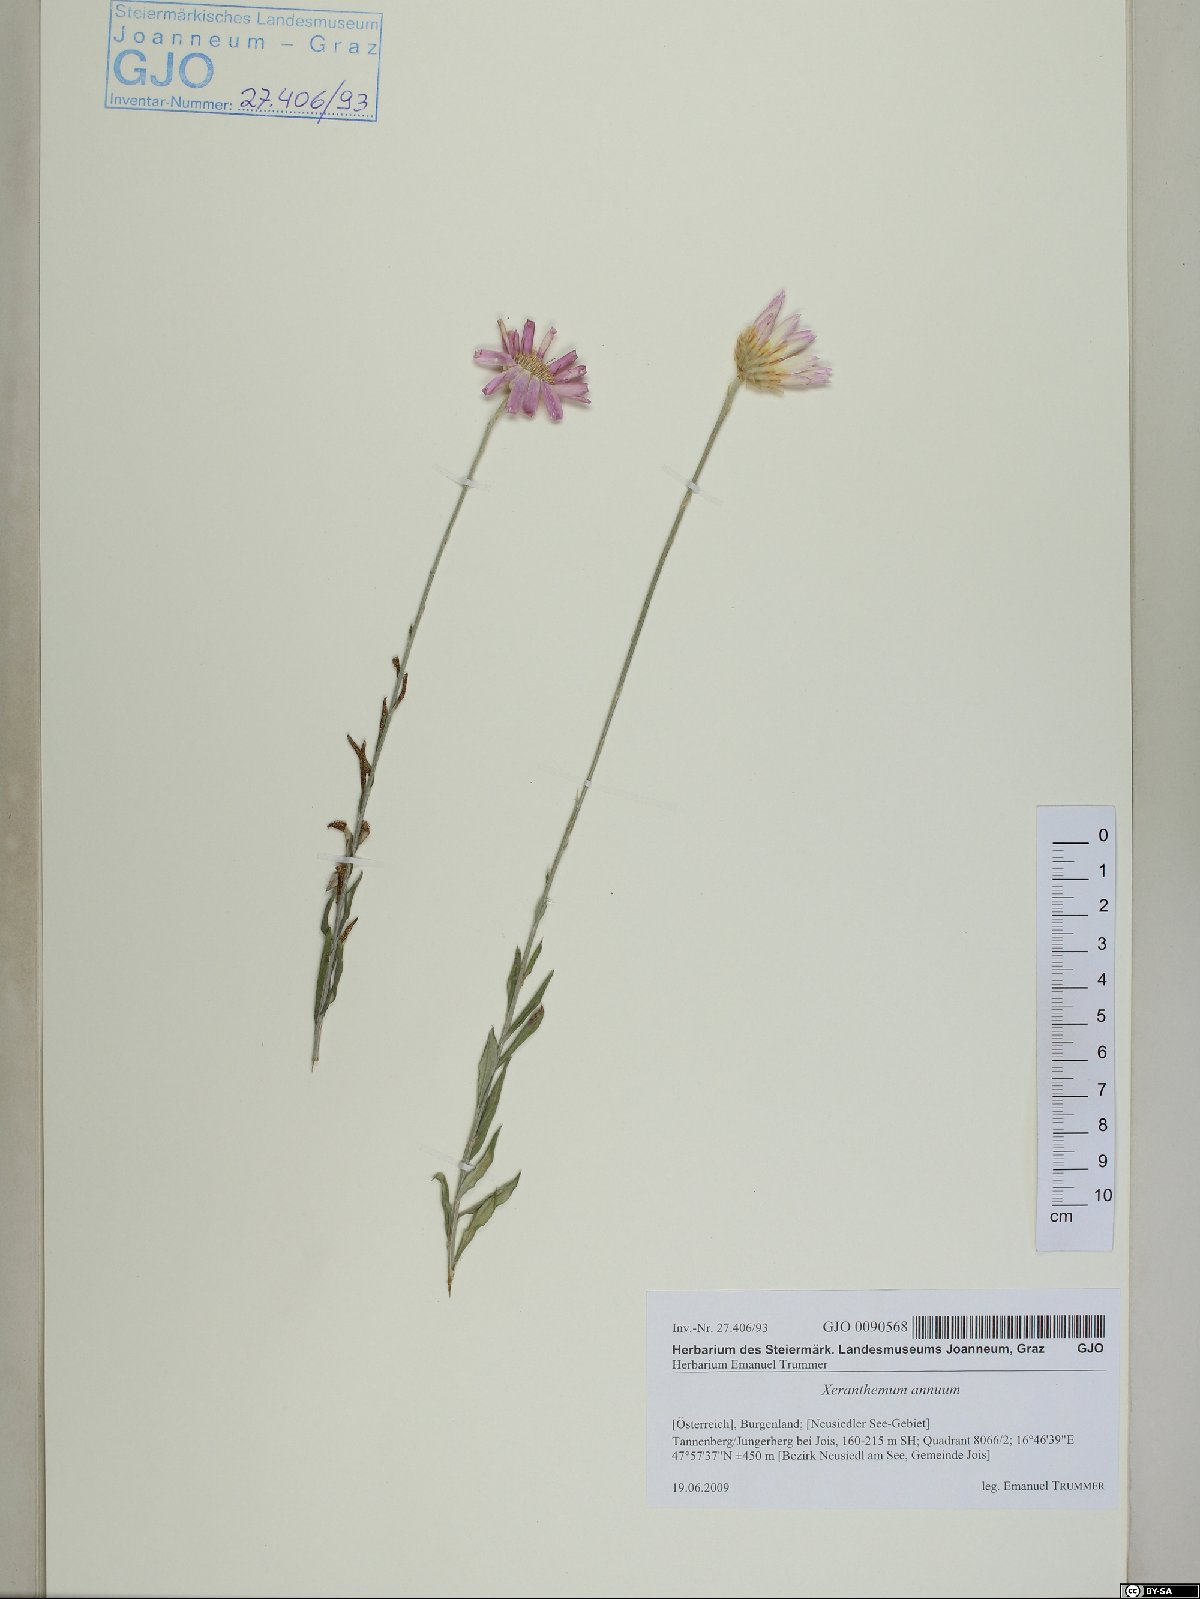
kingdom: Plantae
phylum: Tracheophyta
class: Magnoliopsida
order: Asterales
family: Asteraceae
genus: Xeranthemum
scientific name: Xeranthemum annuum
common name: Immortelle
